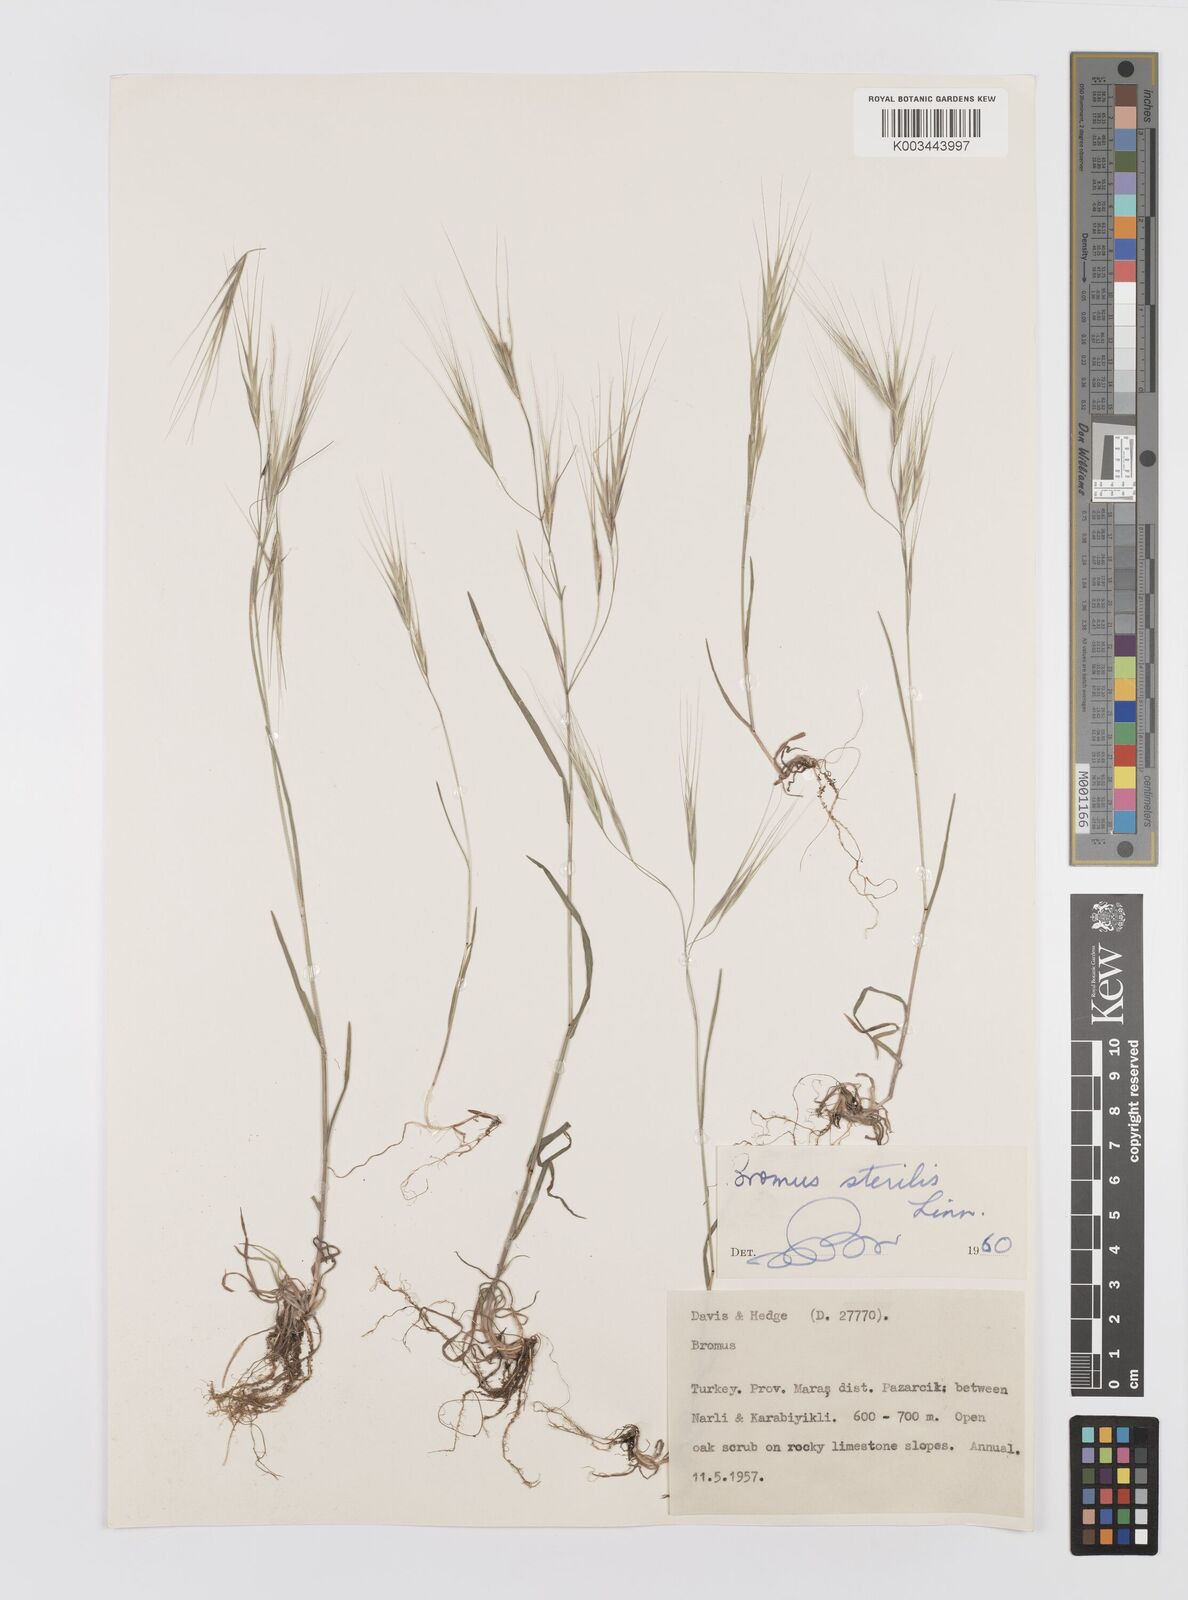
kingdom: Plantae
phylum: Tracheophyta
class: Liliopsida
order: Poales
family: Poaceae
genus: Bromus
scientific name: Bromus sterilis
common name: Poverty brome
